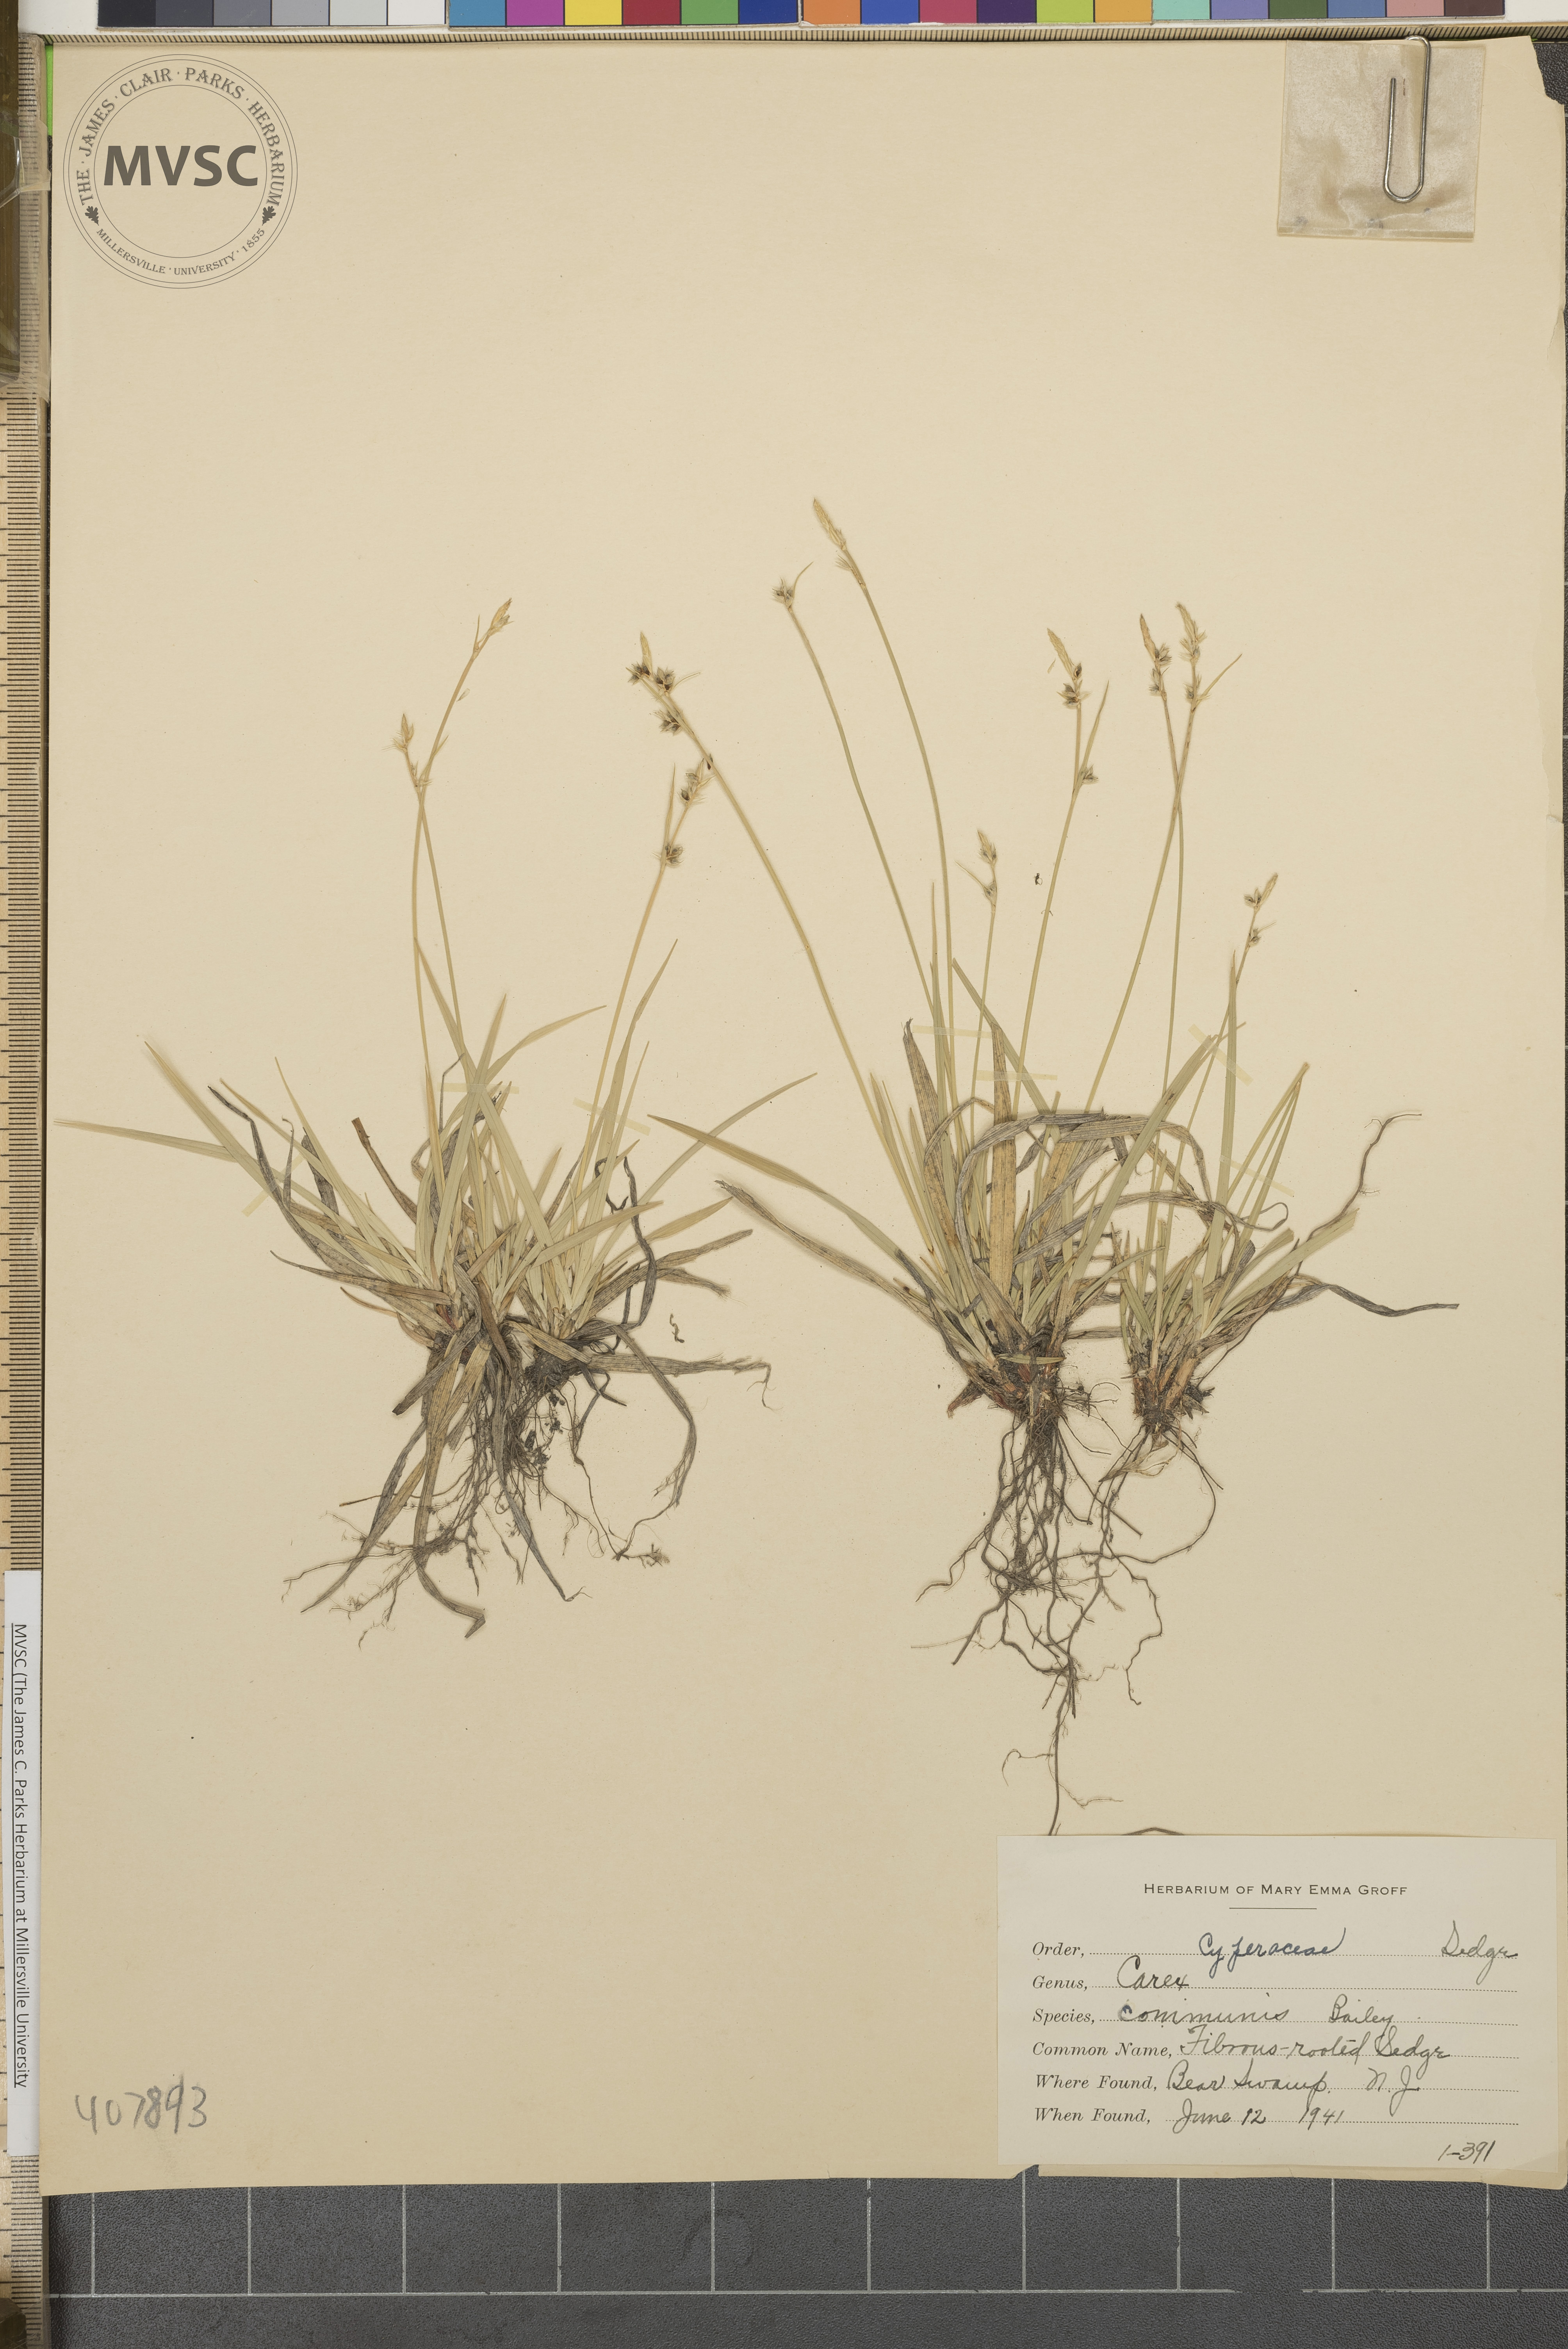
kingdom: Plantae
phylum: Tracheophyta
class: Liliopsida
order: Poales
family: Cyperaceae
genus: Carex
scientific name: Carex communis
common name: Fibrous-rooted Sedge
